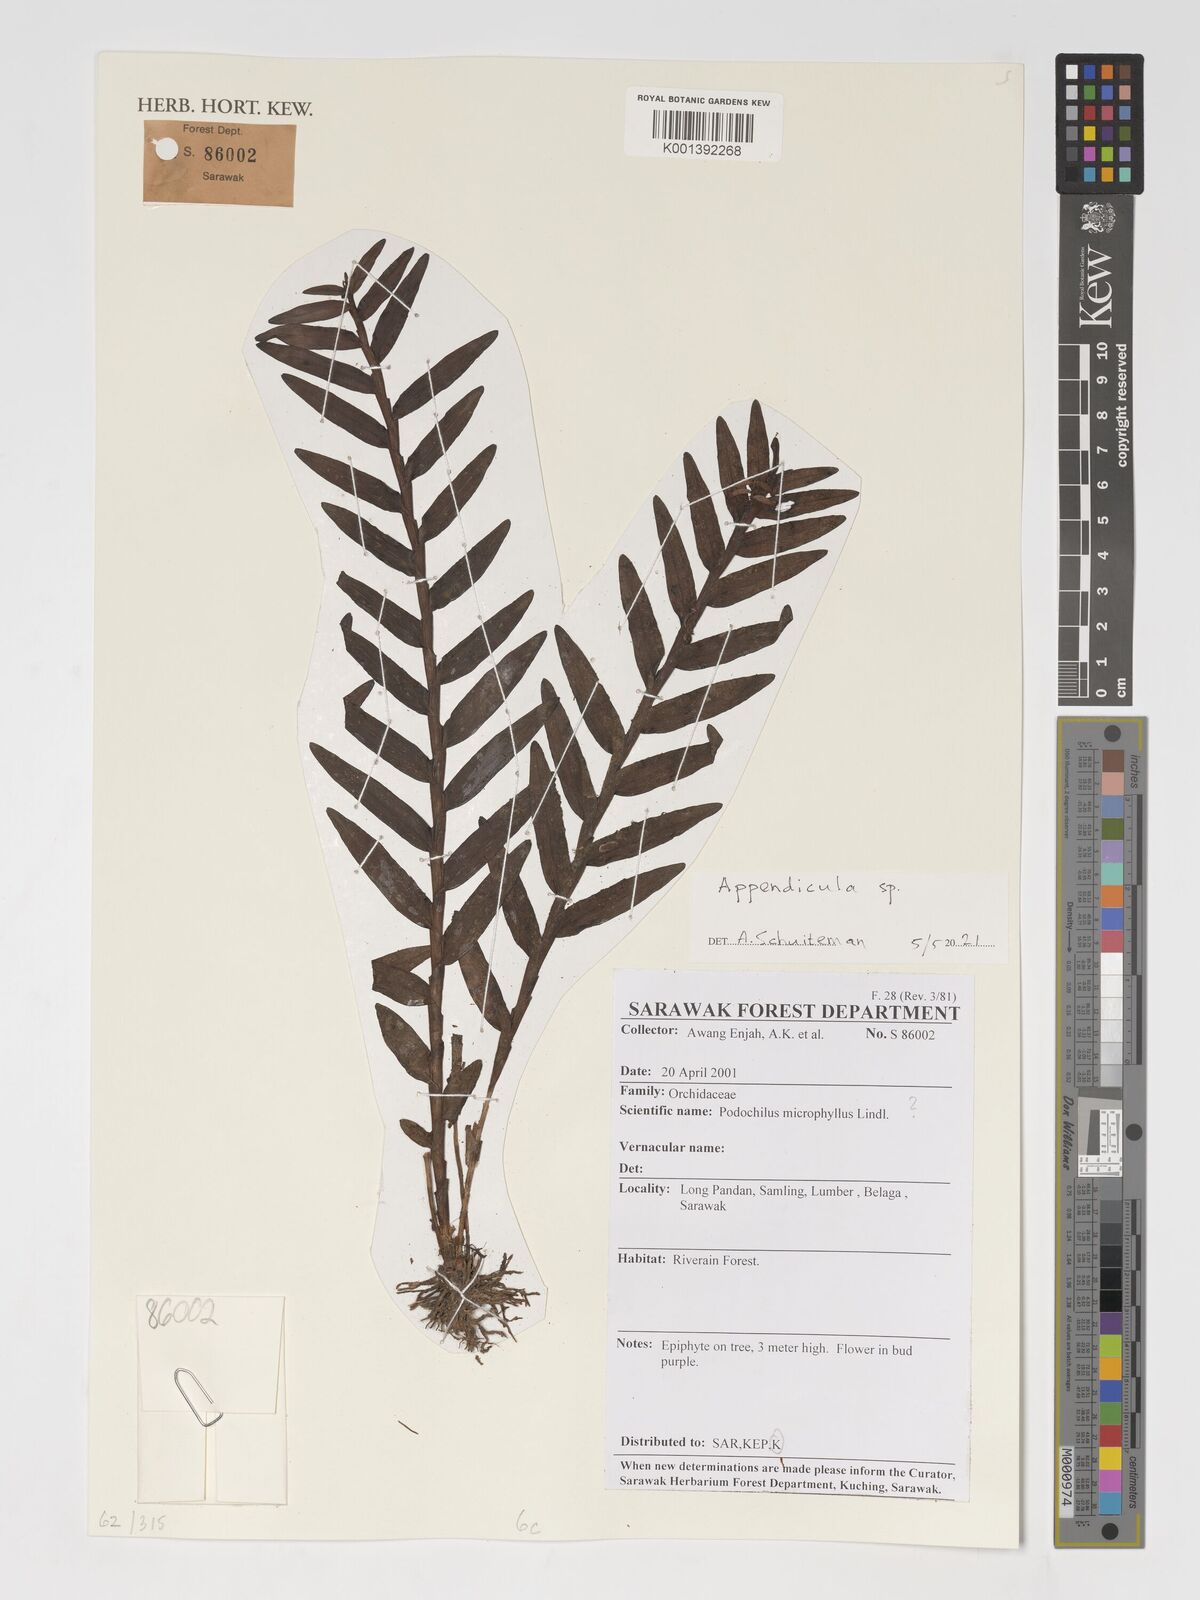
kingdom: Plantae
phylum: Tracheophyta
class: Liliopsida
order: Asparagales
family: Orchidaceae
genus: Appendicula
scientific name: Appendicula
